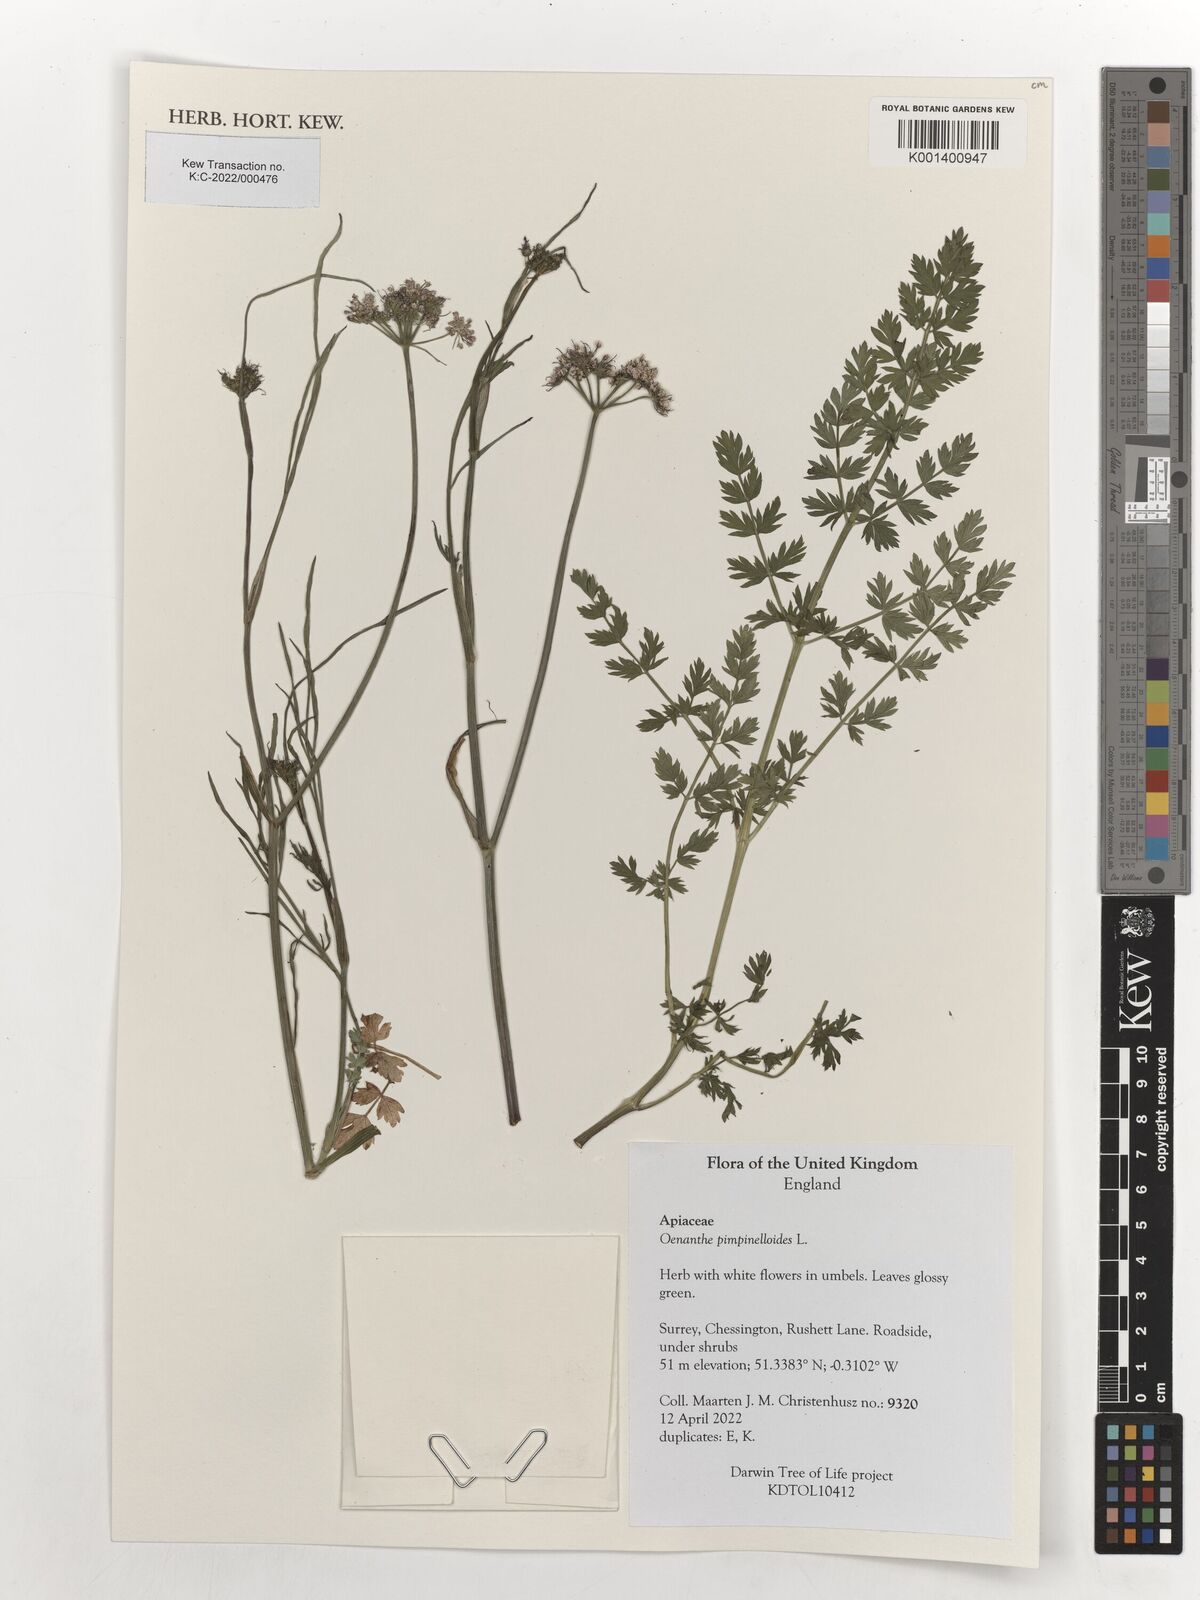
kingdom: Plantae
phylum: Tracheophyta
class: Magnoliopsida
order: Apiales
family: Apiaceae
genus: Oenanthe
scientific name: Oenanthe pimpinelloides
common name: Corky-fruited water-dropwort
